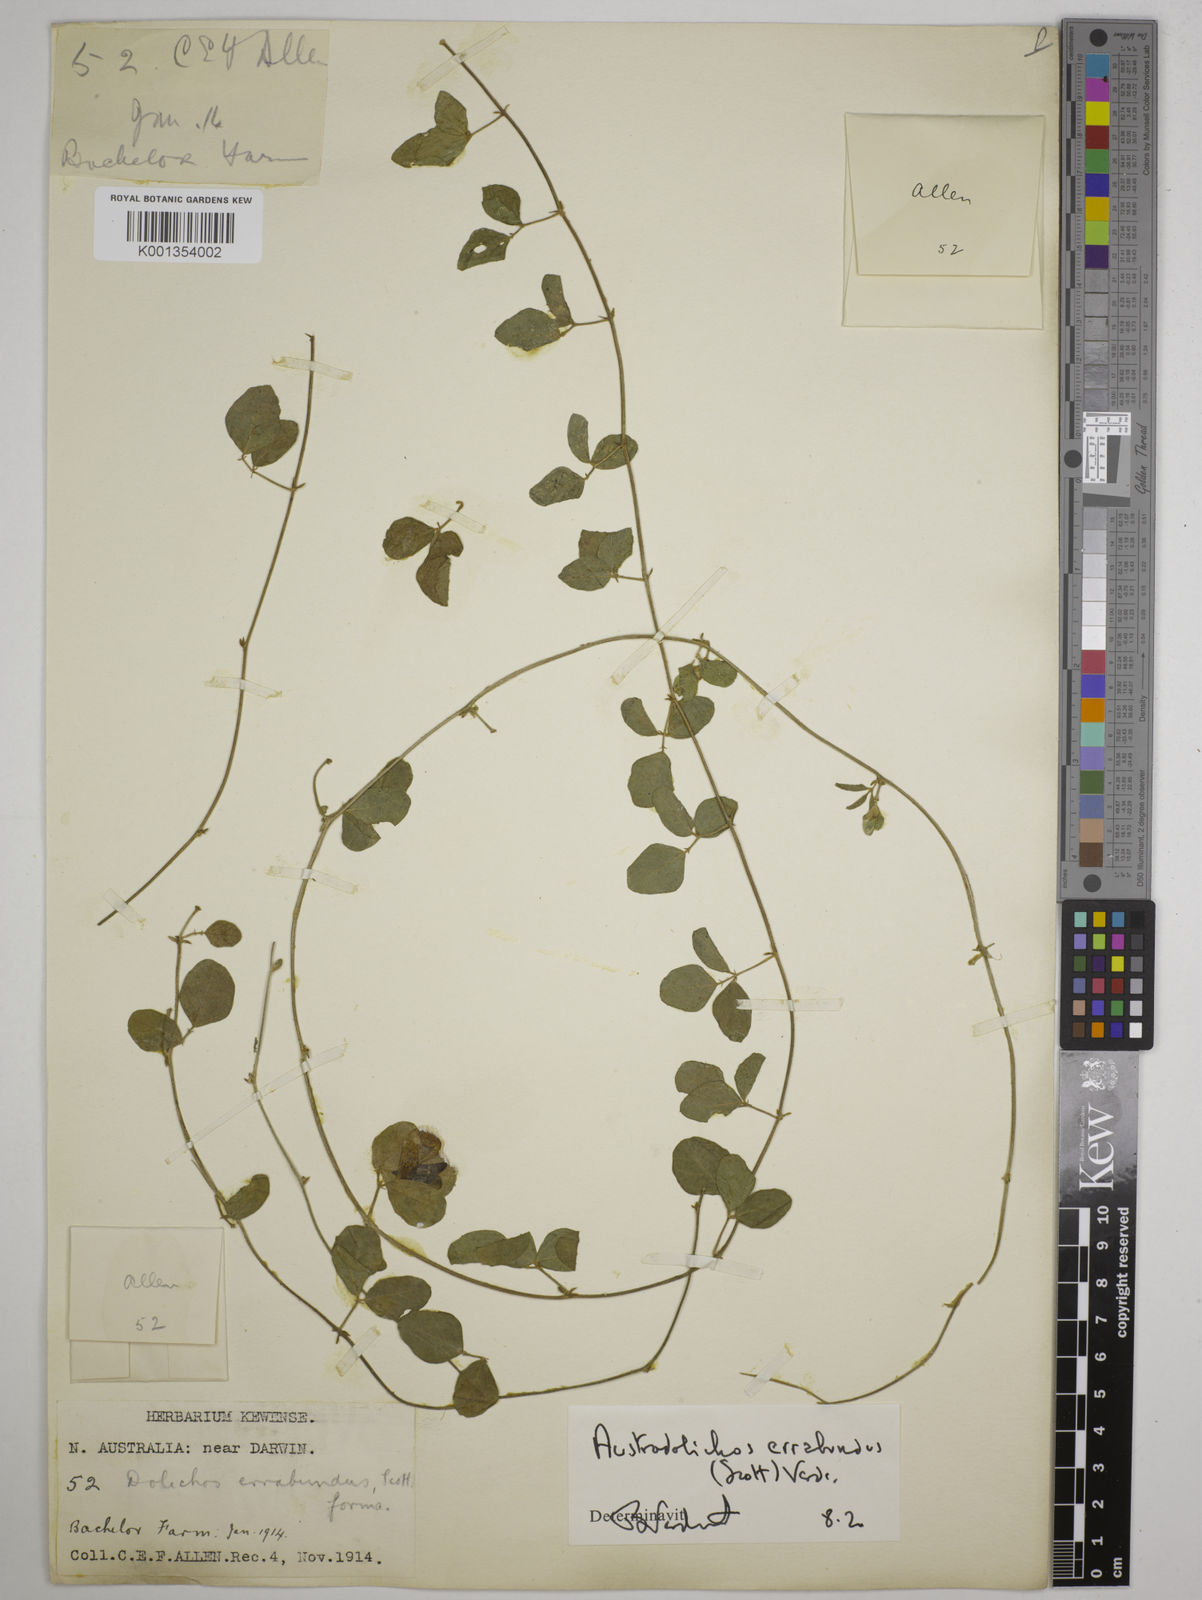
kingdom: Plantae
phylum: Tracheophyta
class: Magnoliopsida
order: Fabales
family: Fabaceae
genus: Austrodolichos
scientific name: Austrodolichos errabundus
